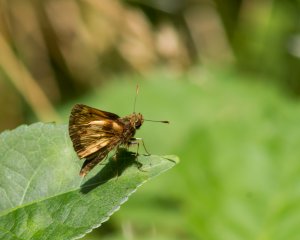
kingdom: Animalia
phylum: Arthropoda
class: Insecta
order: Lepidoptera
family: Hesperiidae
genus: Lon
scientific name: Lon zabulon
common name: Zabulon Skipper
